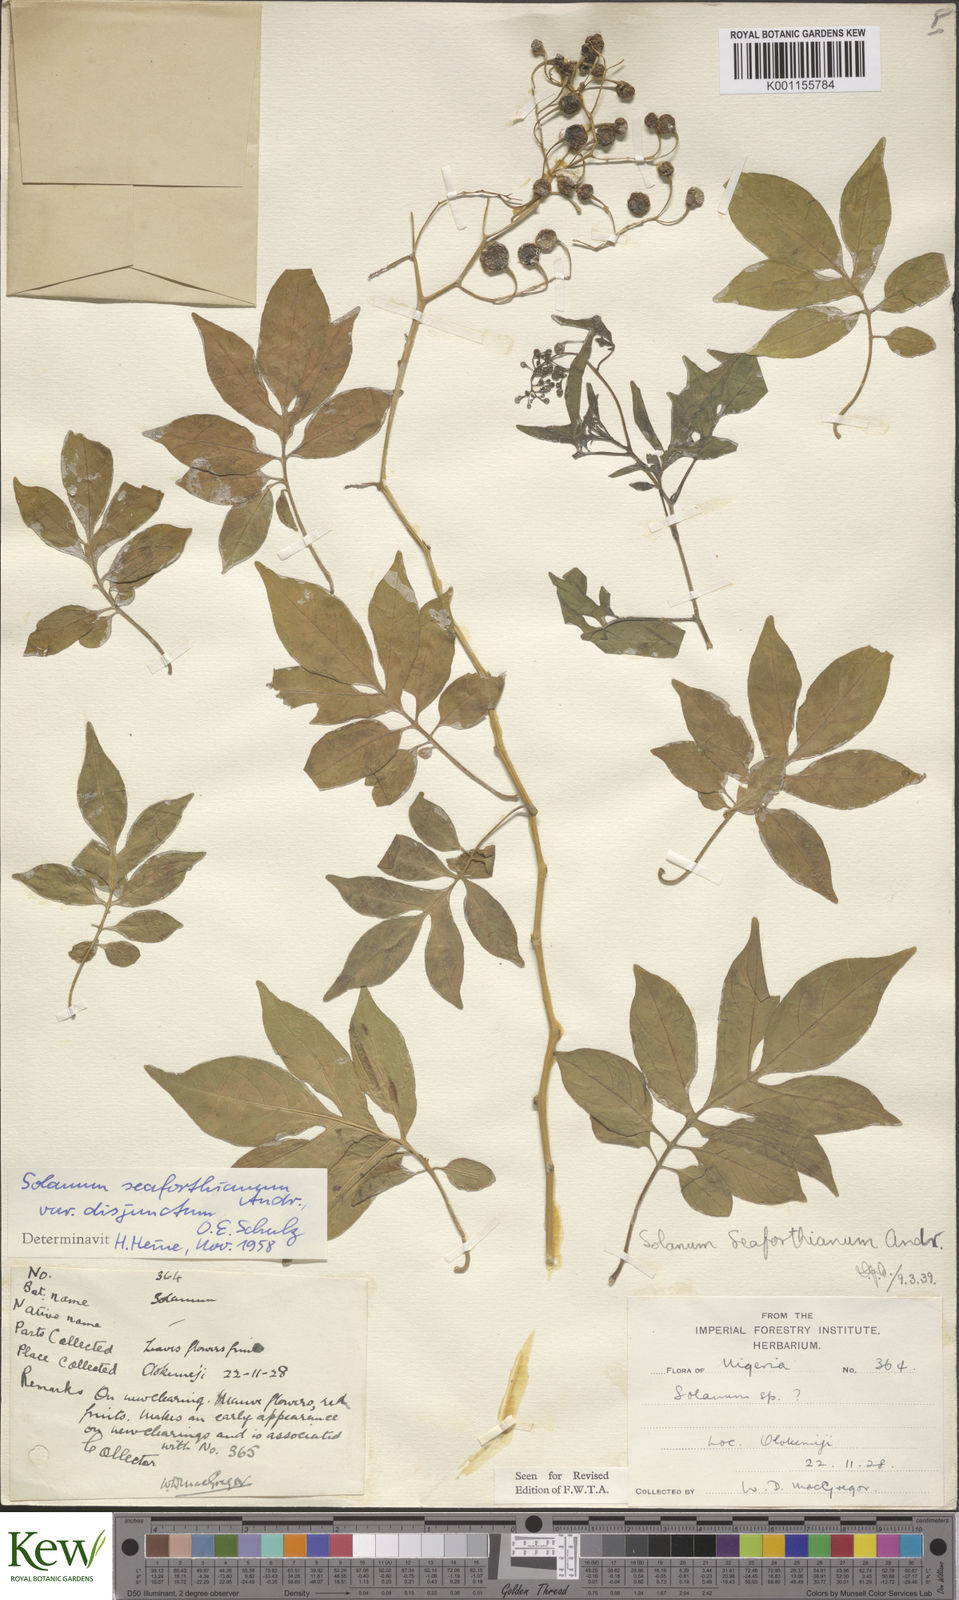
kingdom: Plantae
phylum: Tracheophyta
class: Magnoliopsida
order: Solanales
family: Solanaceae
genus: Solanum
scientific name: Solanum seaforthianum
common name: Brazilian nightshade
